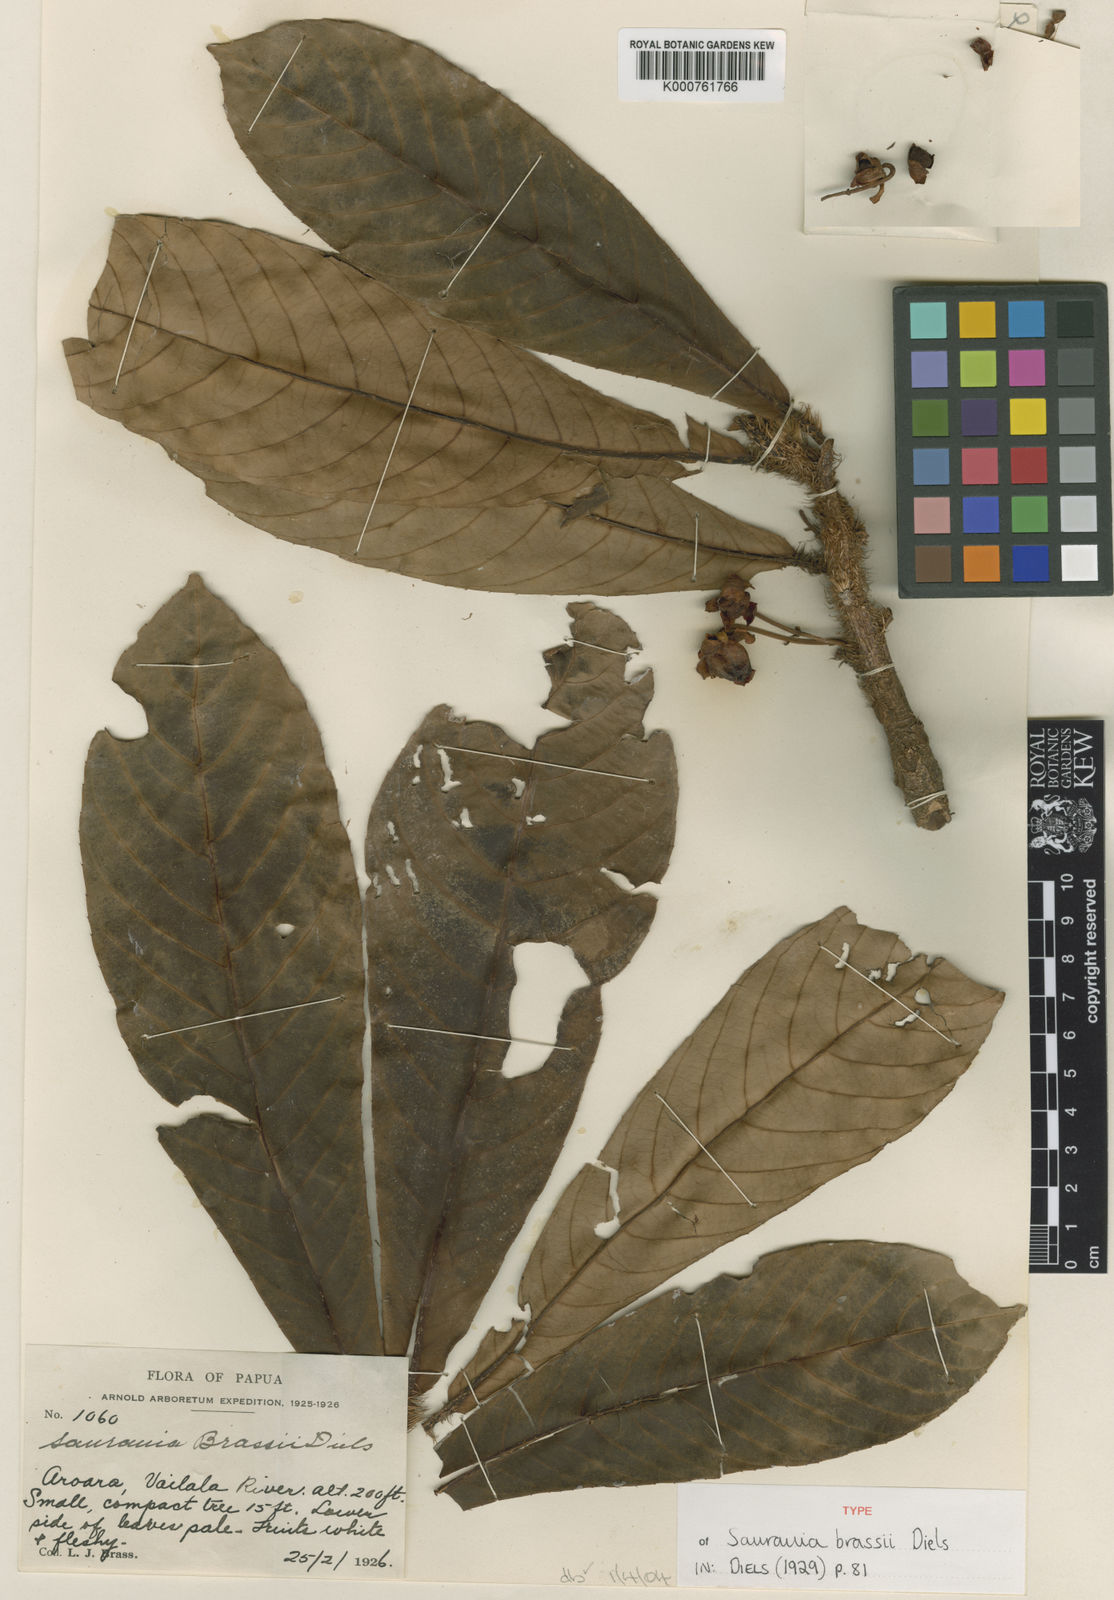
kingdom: Plantae
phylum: Tracheophyta
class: Magnoliopsida
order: Ericales
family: Actinidiaceae
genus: Saurauia
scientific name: Saurauia brassii
